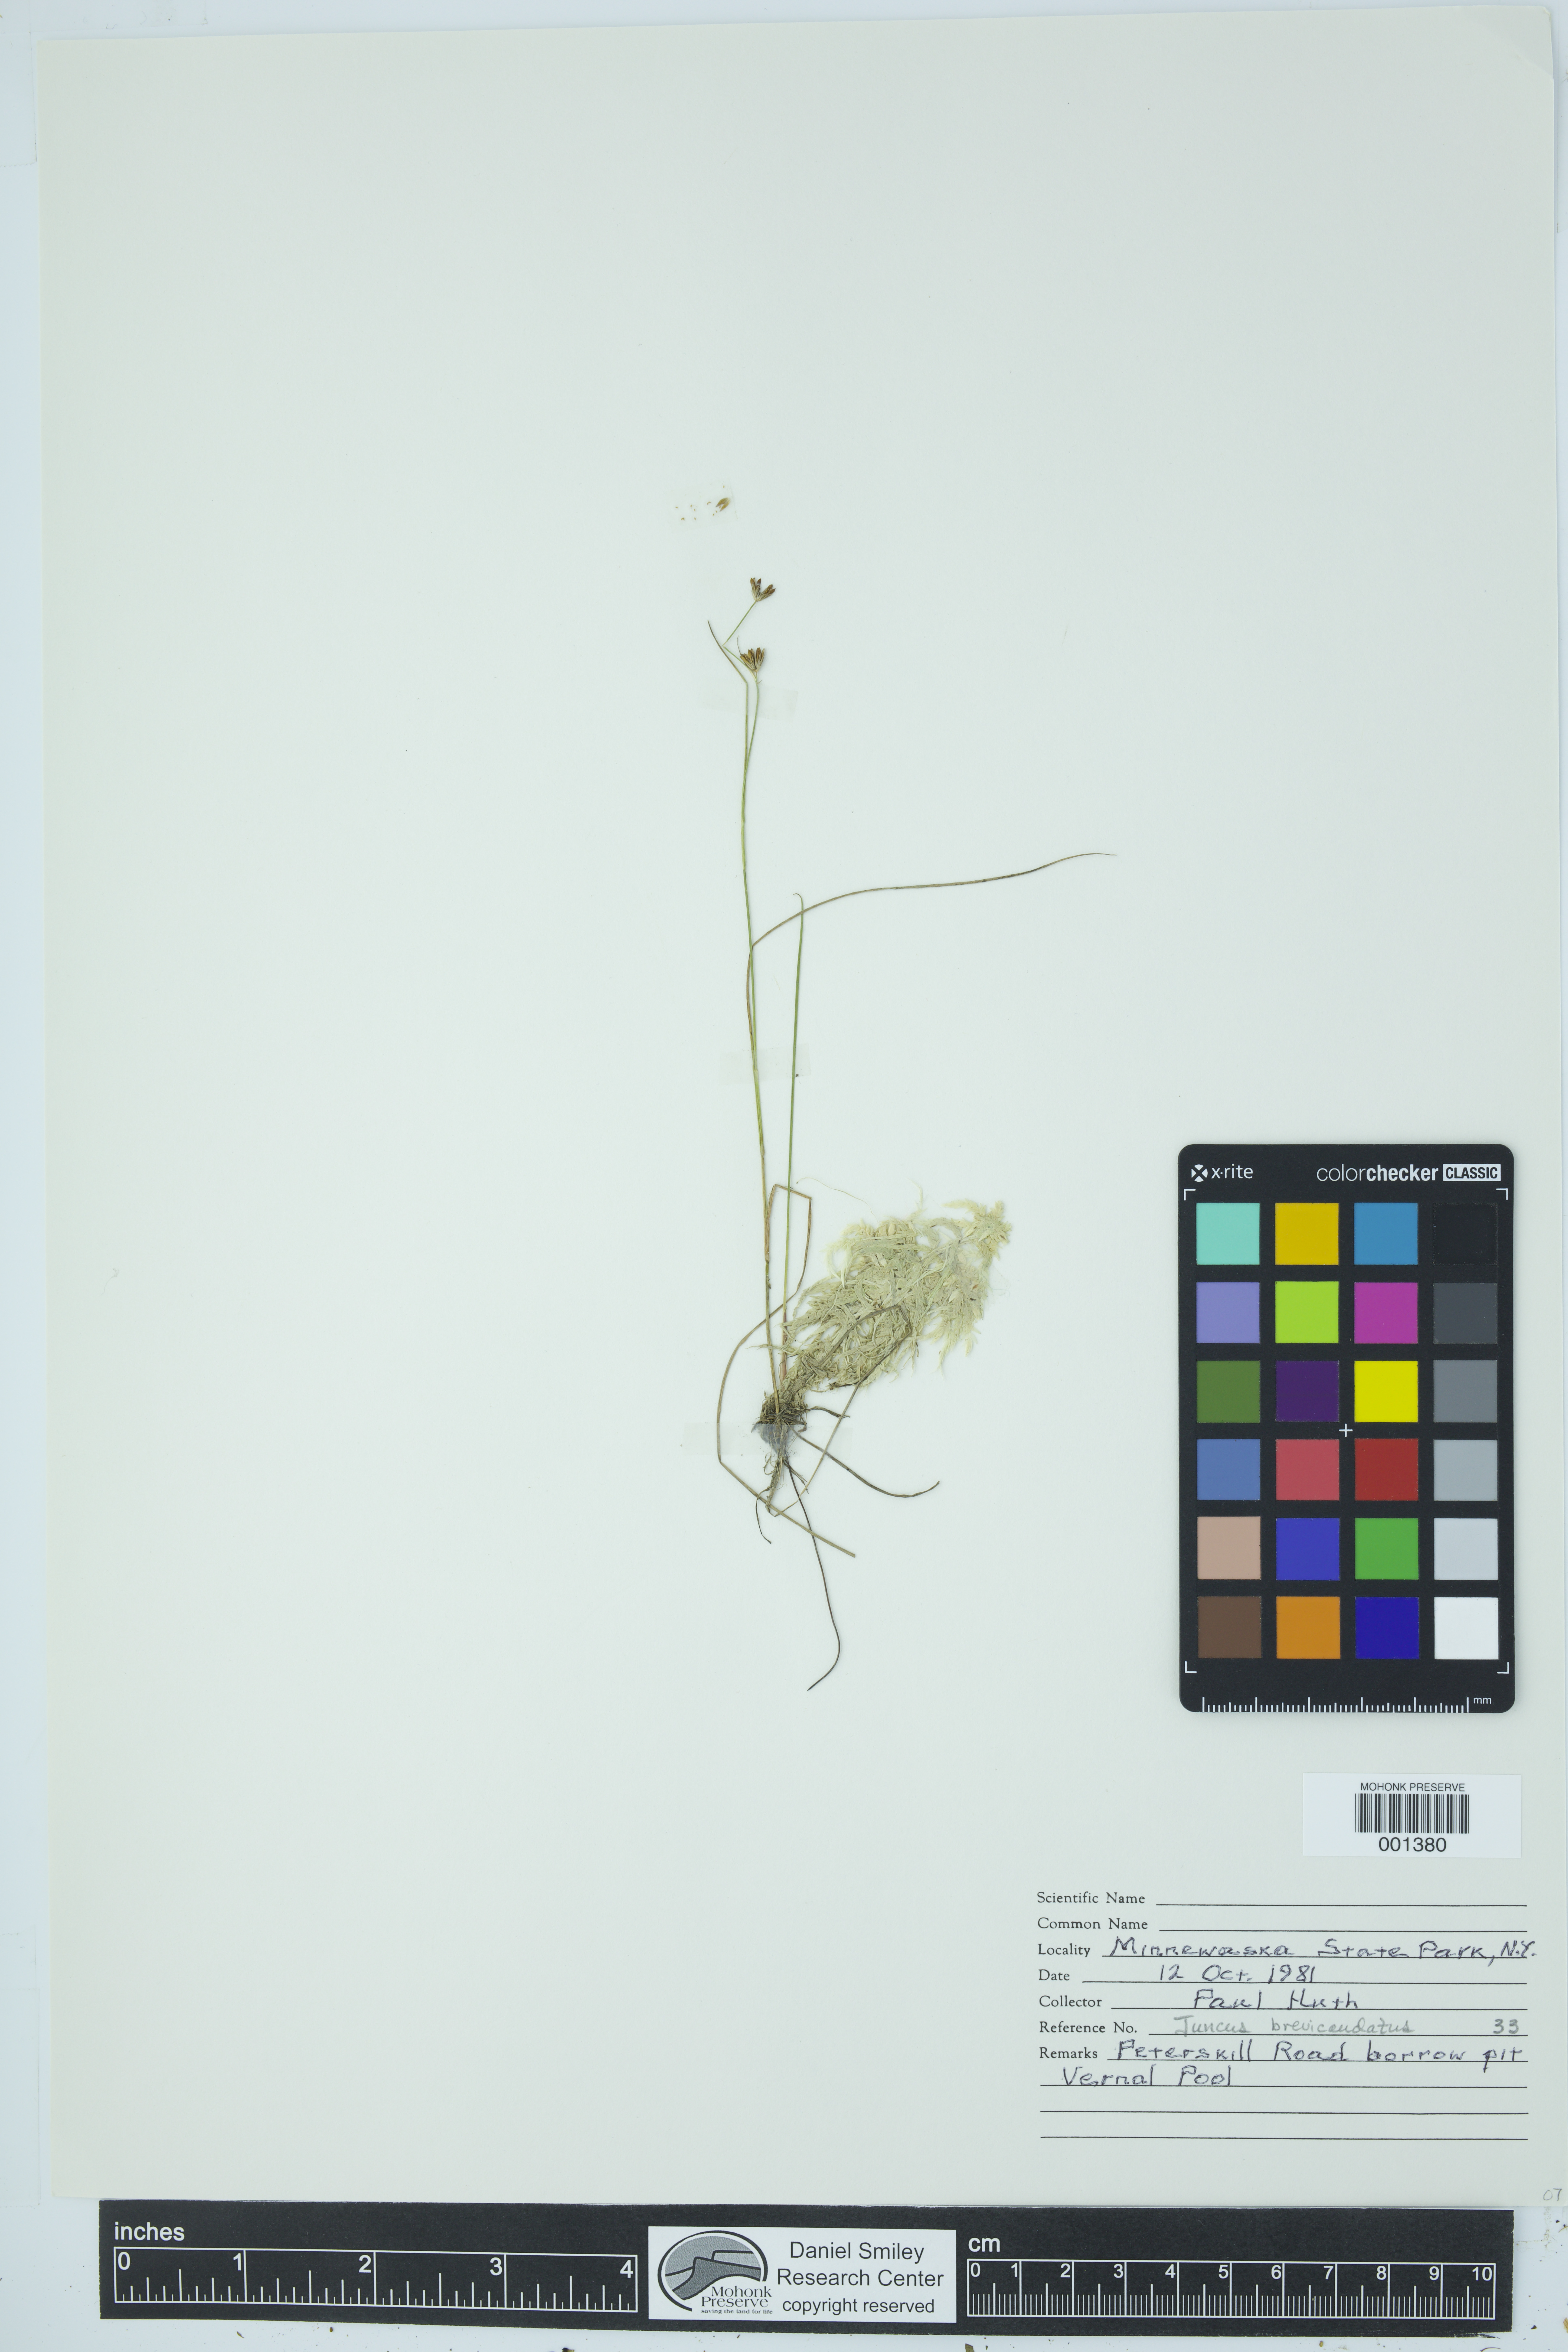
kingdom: Plantae
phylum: Tracheophyta
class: Liliopsida
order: Poales
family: Juncaceae
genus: Juncus
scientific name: Juncus brevicaudatus
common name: Narrow-panicle rush
